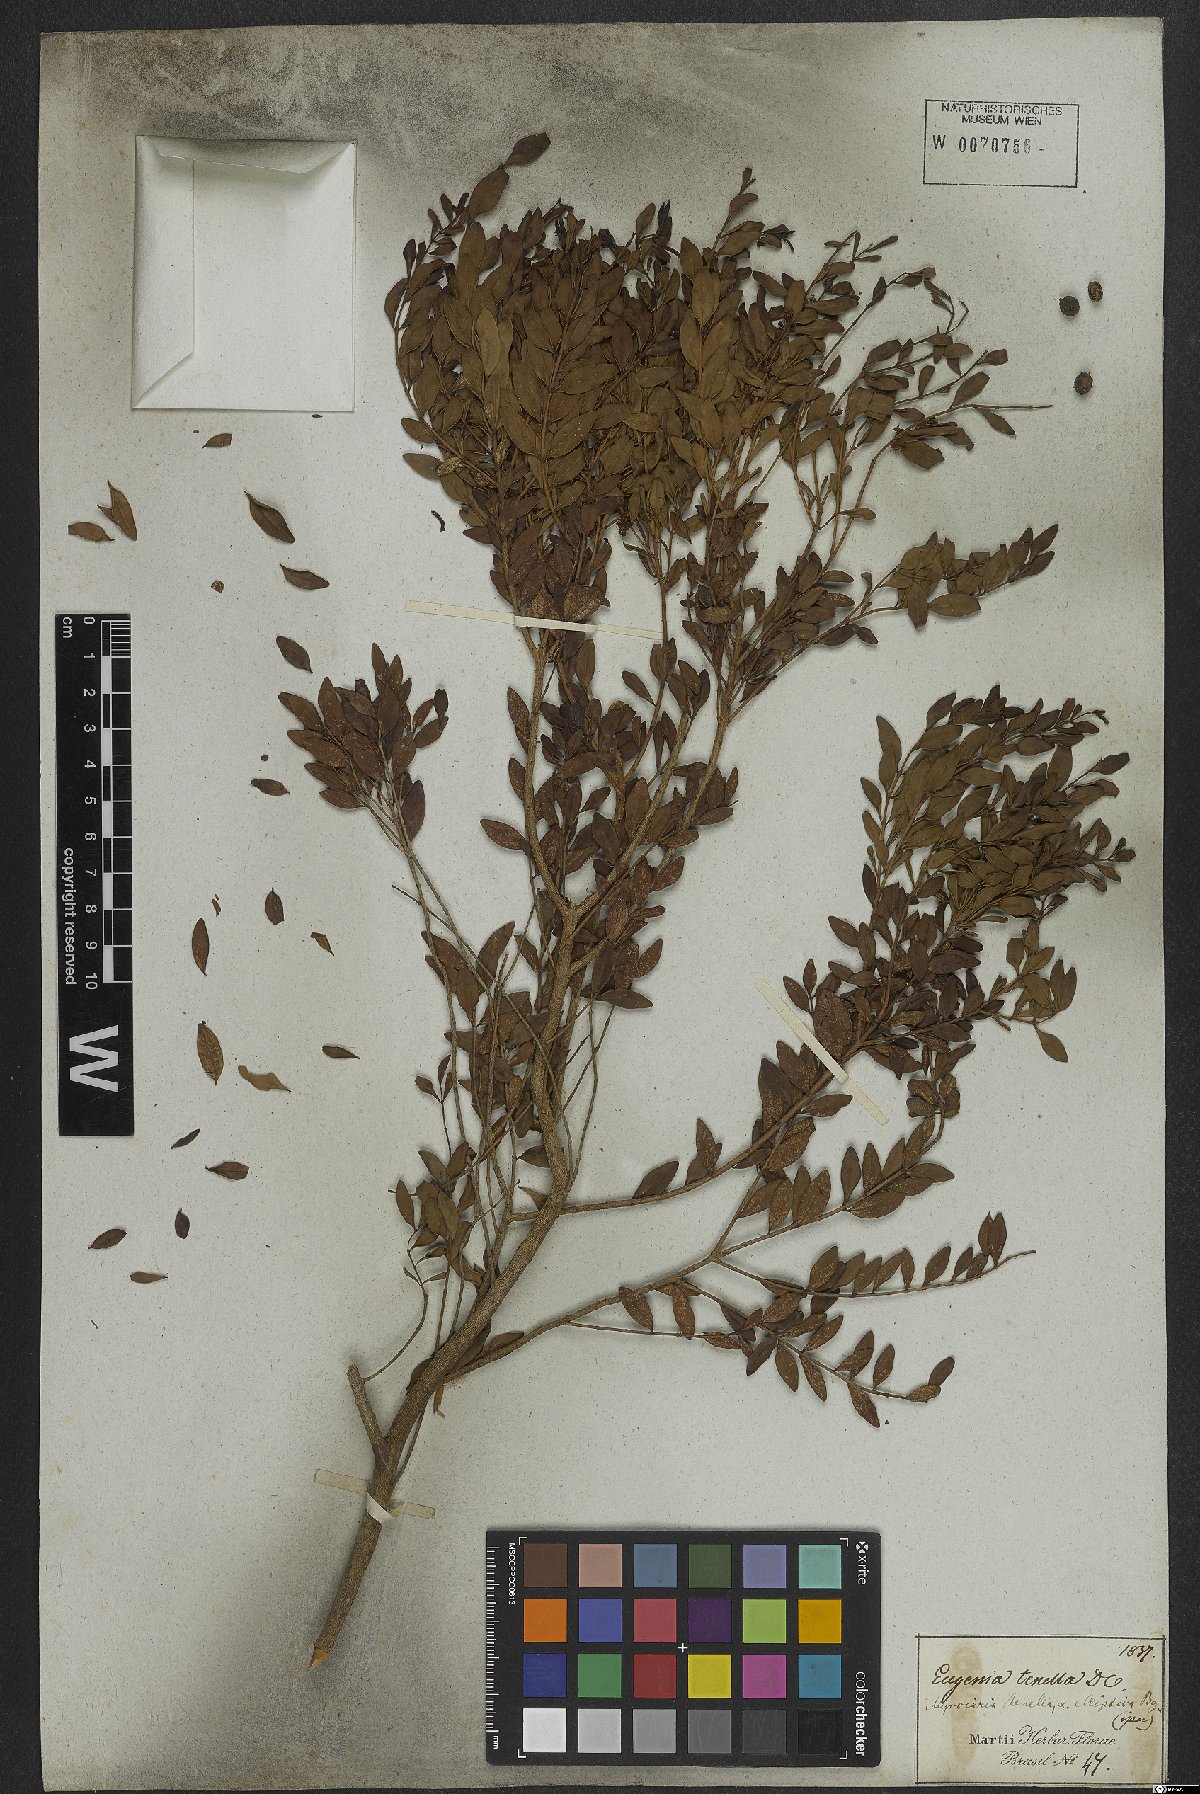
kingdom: Plantae
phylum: Tracheophyta
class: Magnoliopsida
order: Myrtales
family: Myrtaceae
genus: Myrciaria
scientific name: Myrciaria tenella
